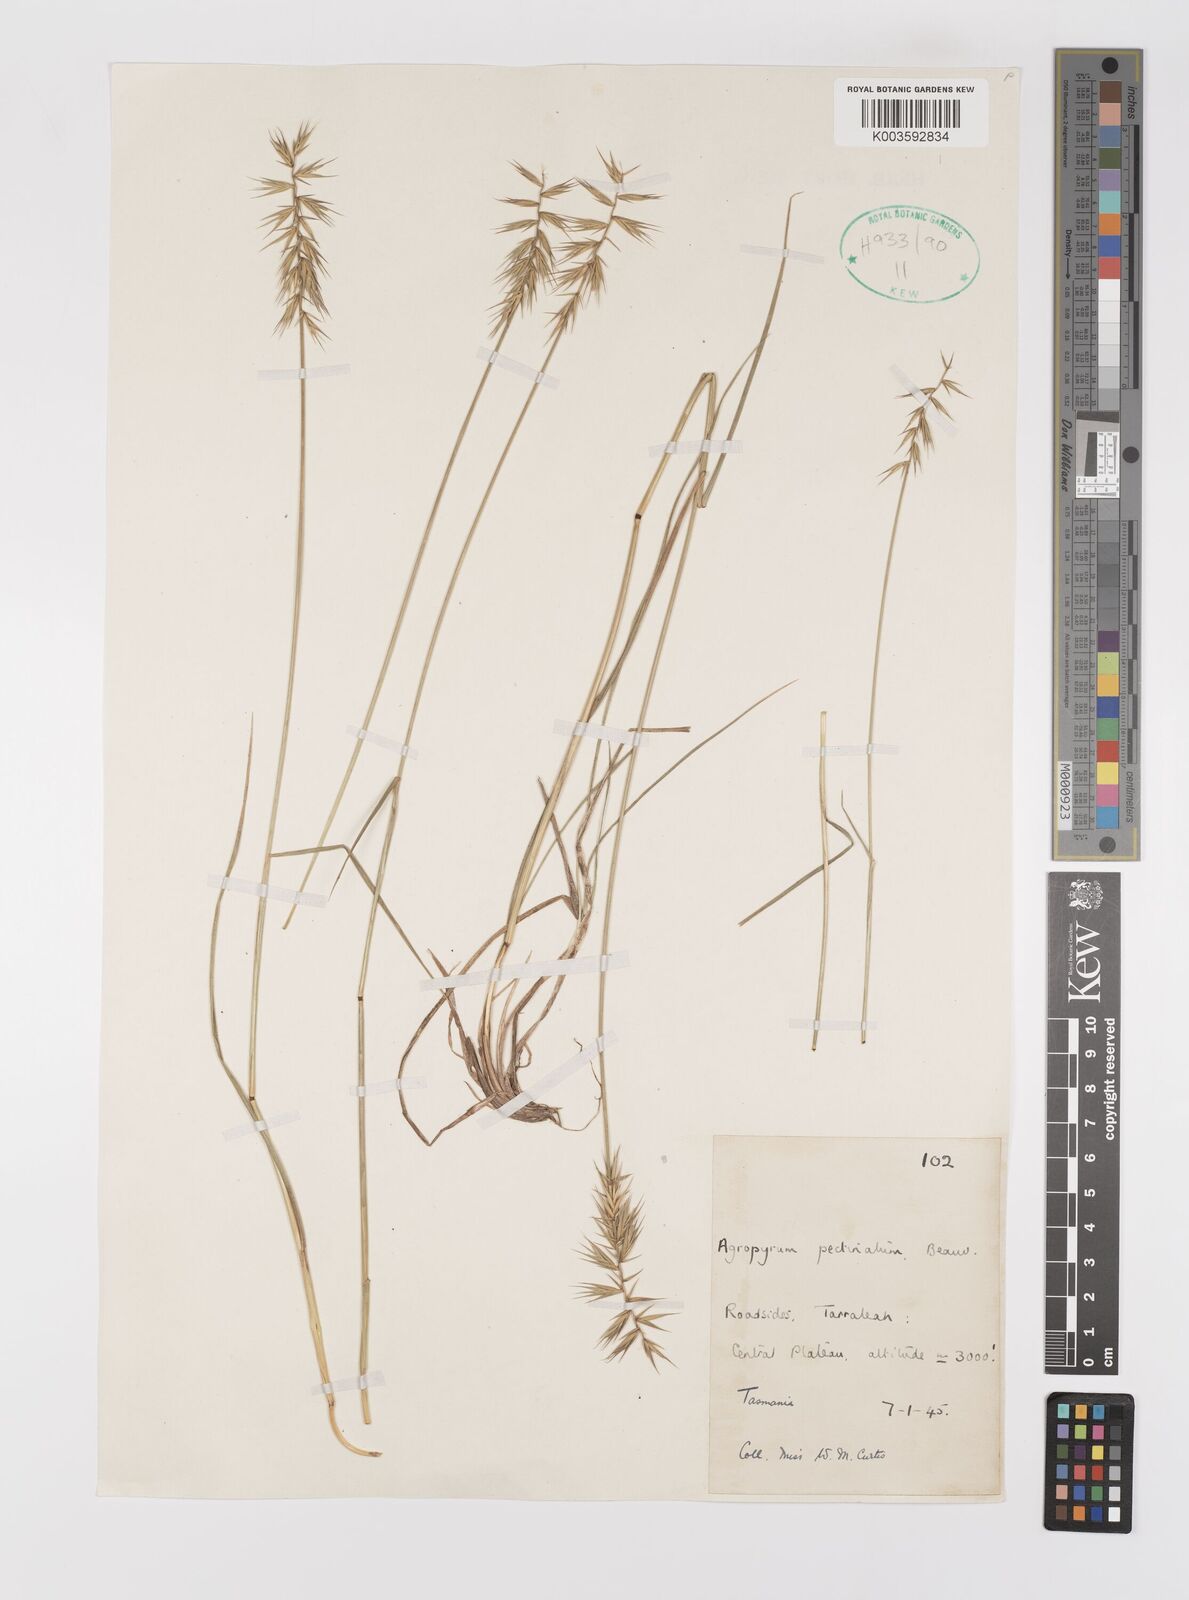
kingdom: Plantae
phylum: Tracheophyta
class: Liliopsida
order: Poales
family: Poaceae
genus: Australopyrum
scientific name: Australopyrum pectinatum
